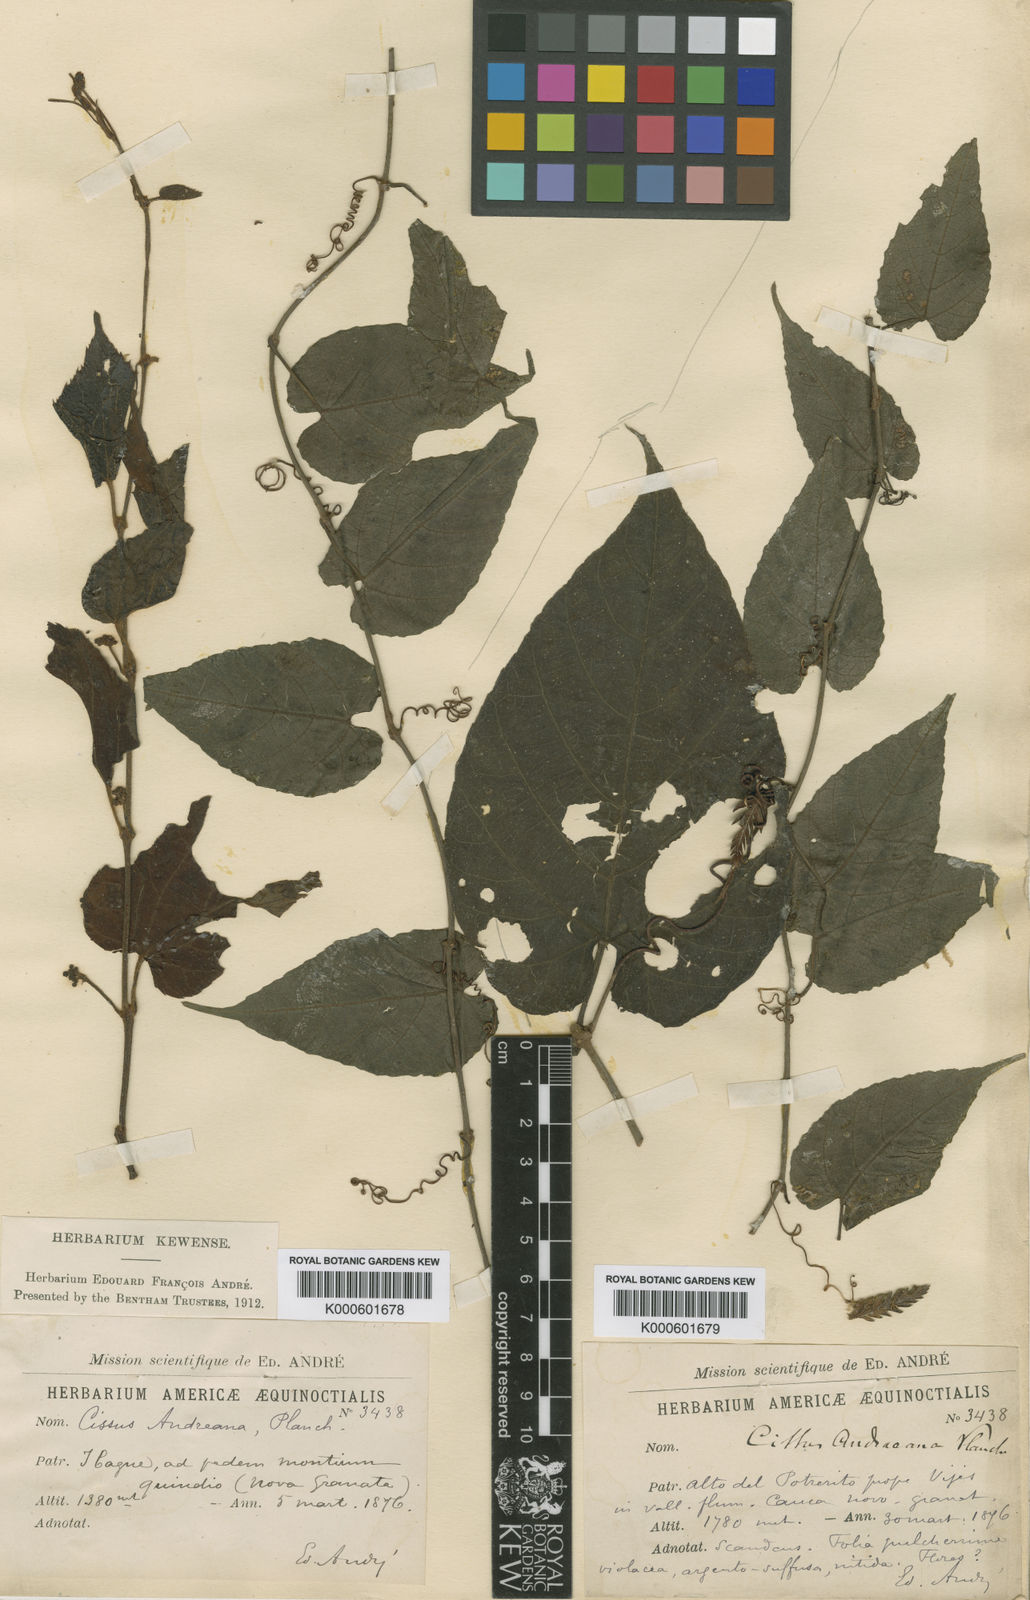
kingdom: Plantae
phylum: Tracheophyta
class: Magnoliopsida
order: Vitales
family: Vitaceae
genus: Cissus
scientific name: Cissus verticillata
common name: Princess vine
